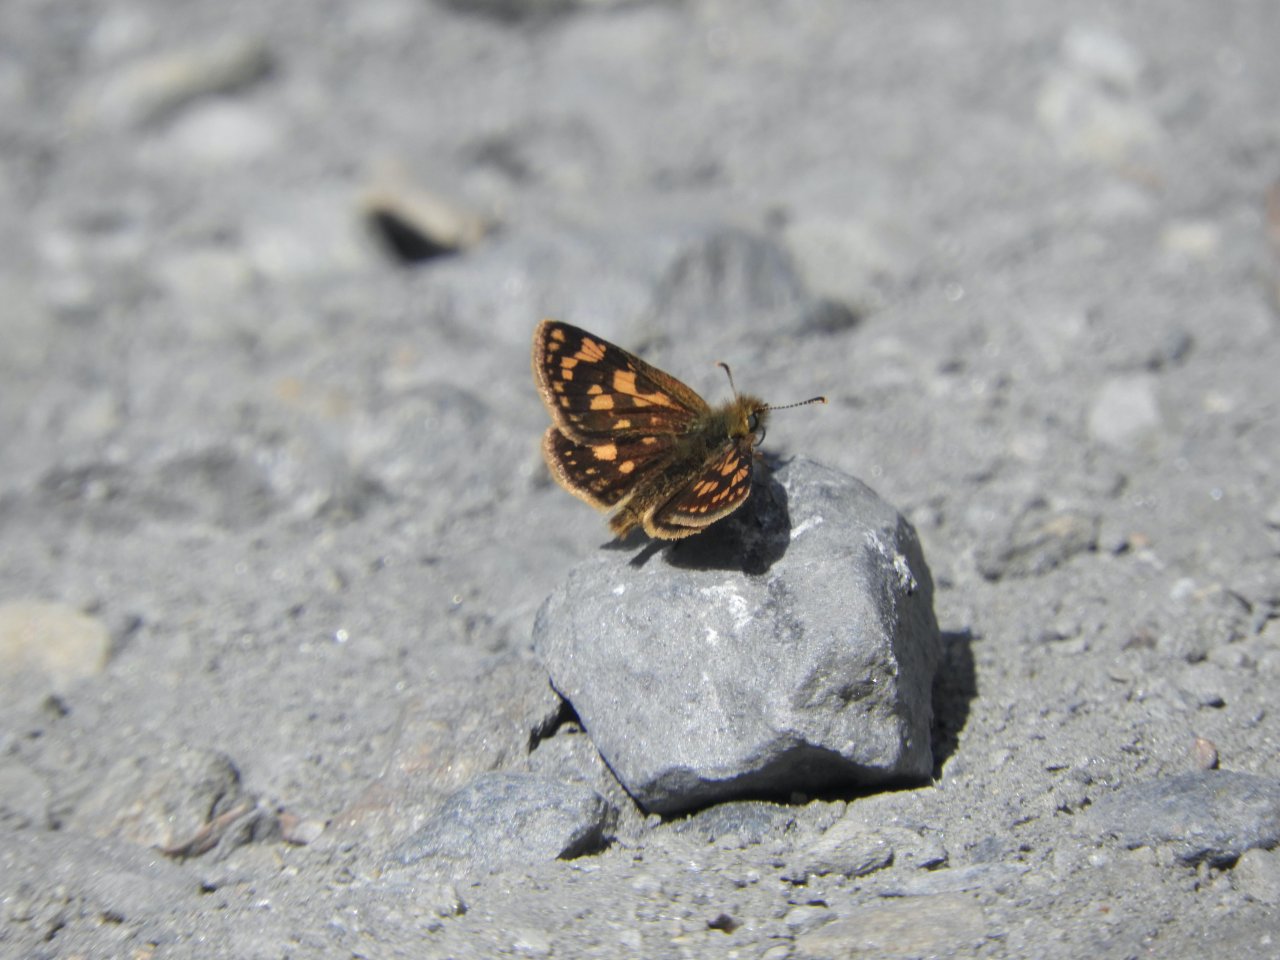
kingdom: Animalia
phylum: Arthropoda
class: Insecta
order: Lepidoptera
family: Hesperiidae
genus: Carterocephalus
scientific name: Carterocephalus palaemon
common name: Chequered Skipper
